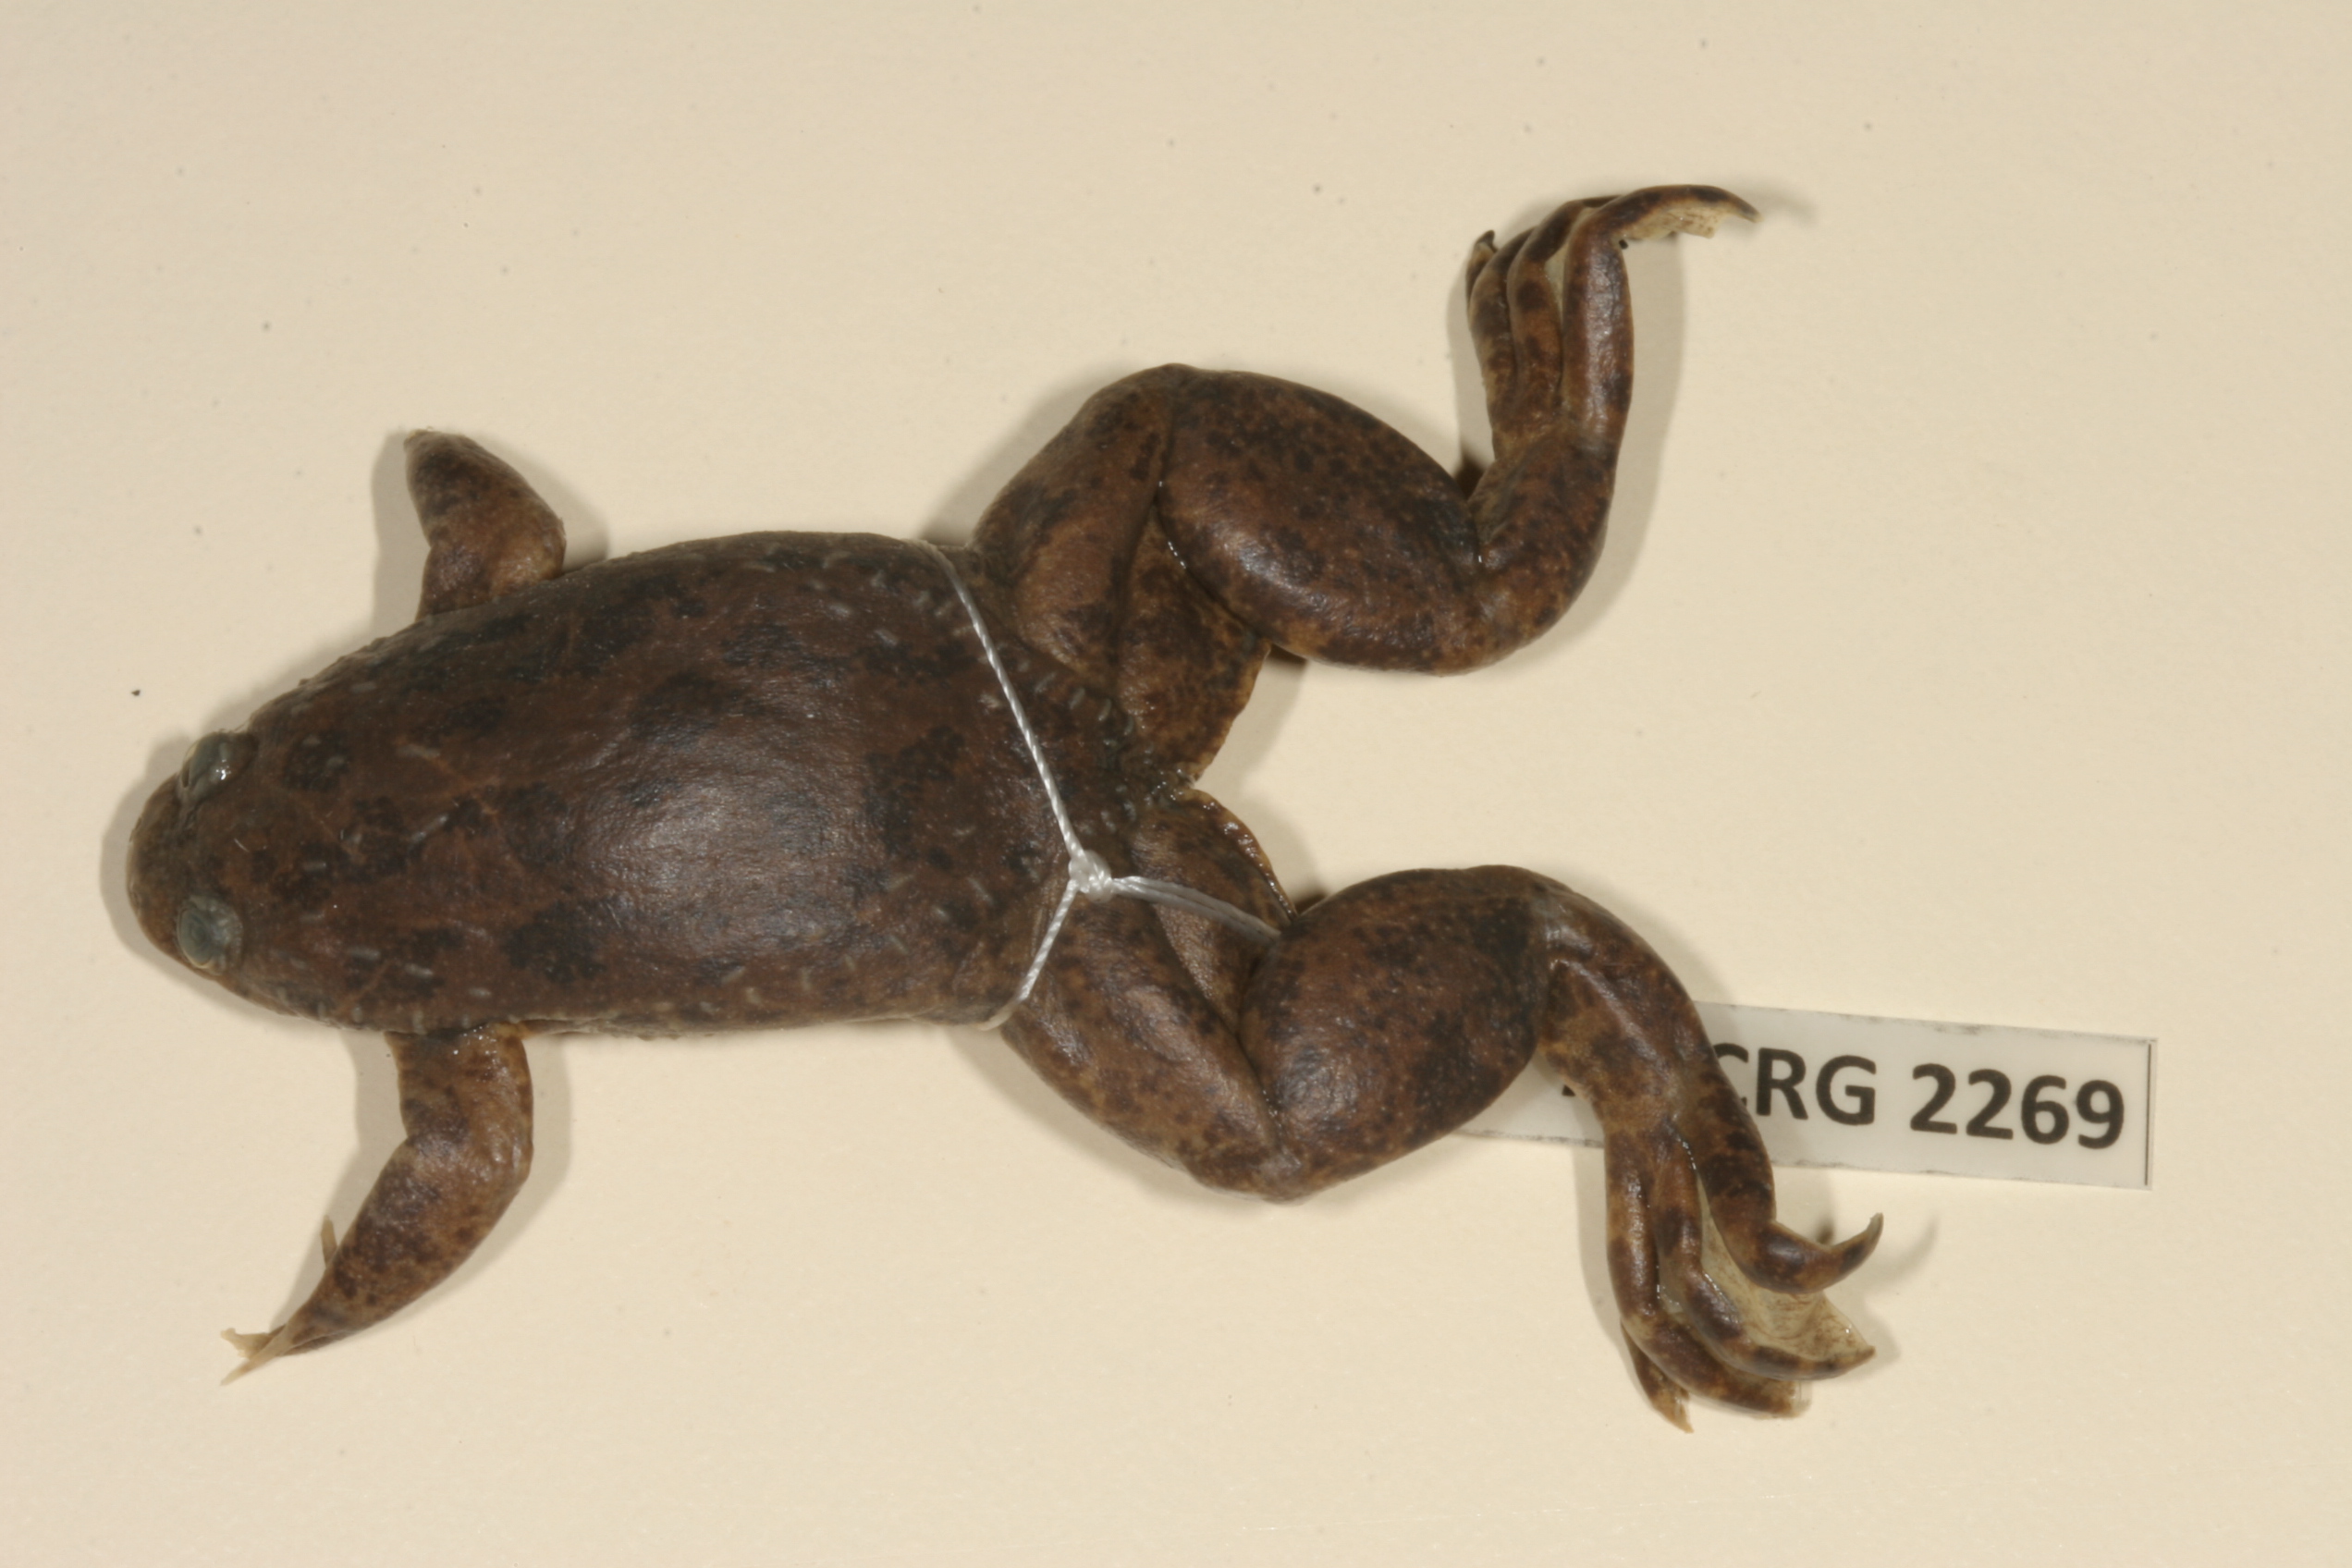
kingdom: Animalia
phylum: Chordata
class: Amphibia
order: Anura
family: Pipidae
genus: Xenopus
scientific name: Xenopus petersii
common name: Peters' clawed frog
